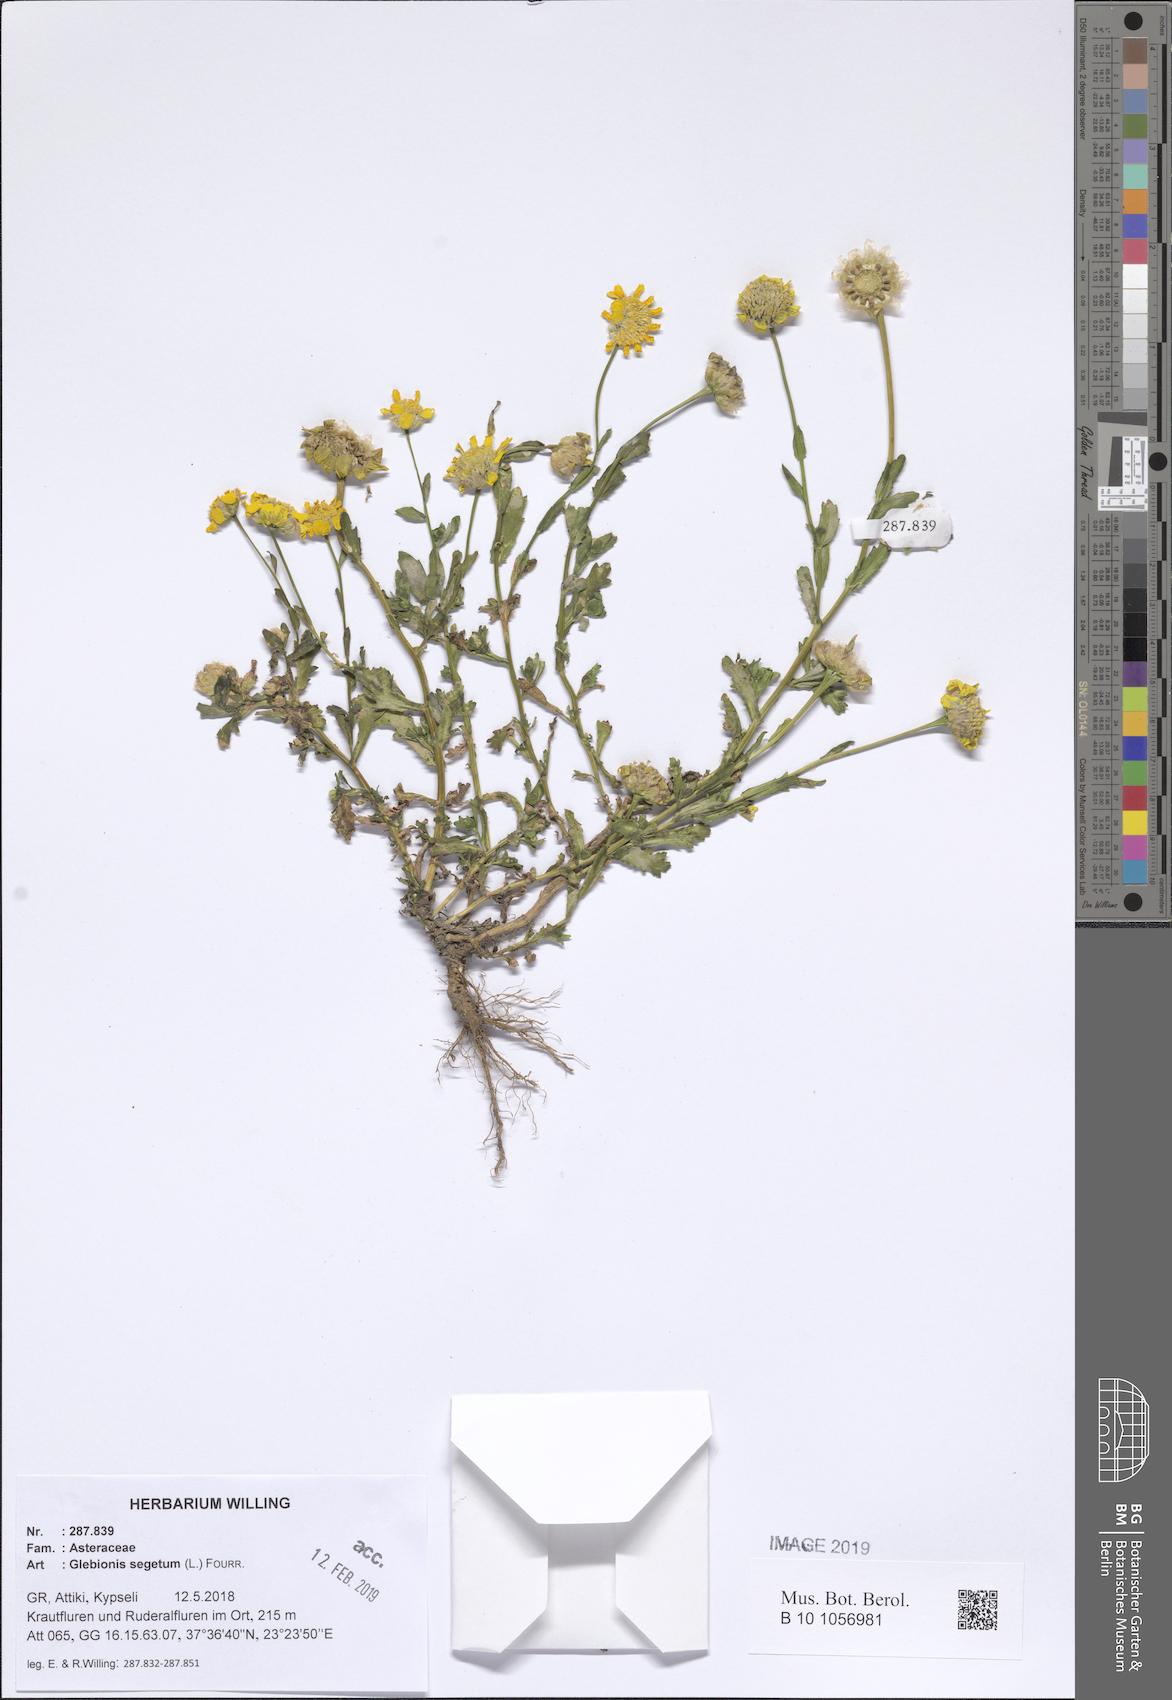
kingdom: Plantae
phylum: Tracheophyta
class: Magnoliopsida
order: Asterales
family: Asteraceae
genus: Glebionis
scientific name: Glebionis segetum
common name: Corndaisy
